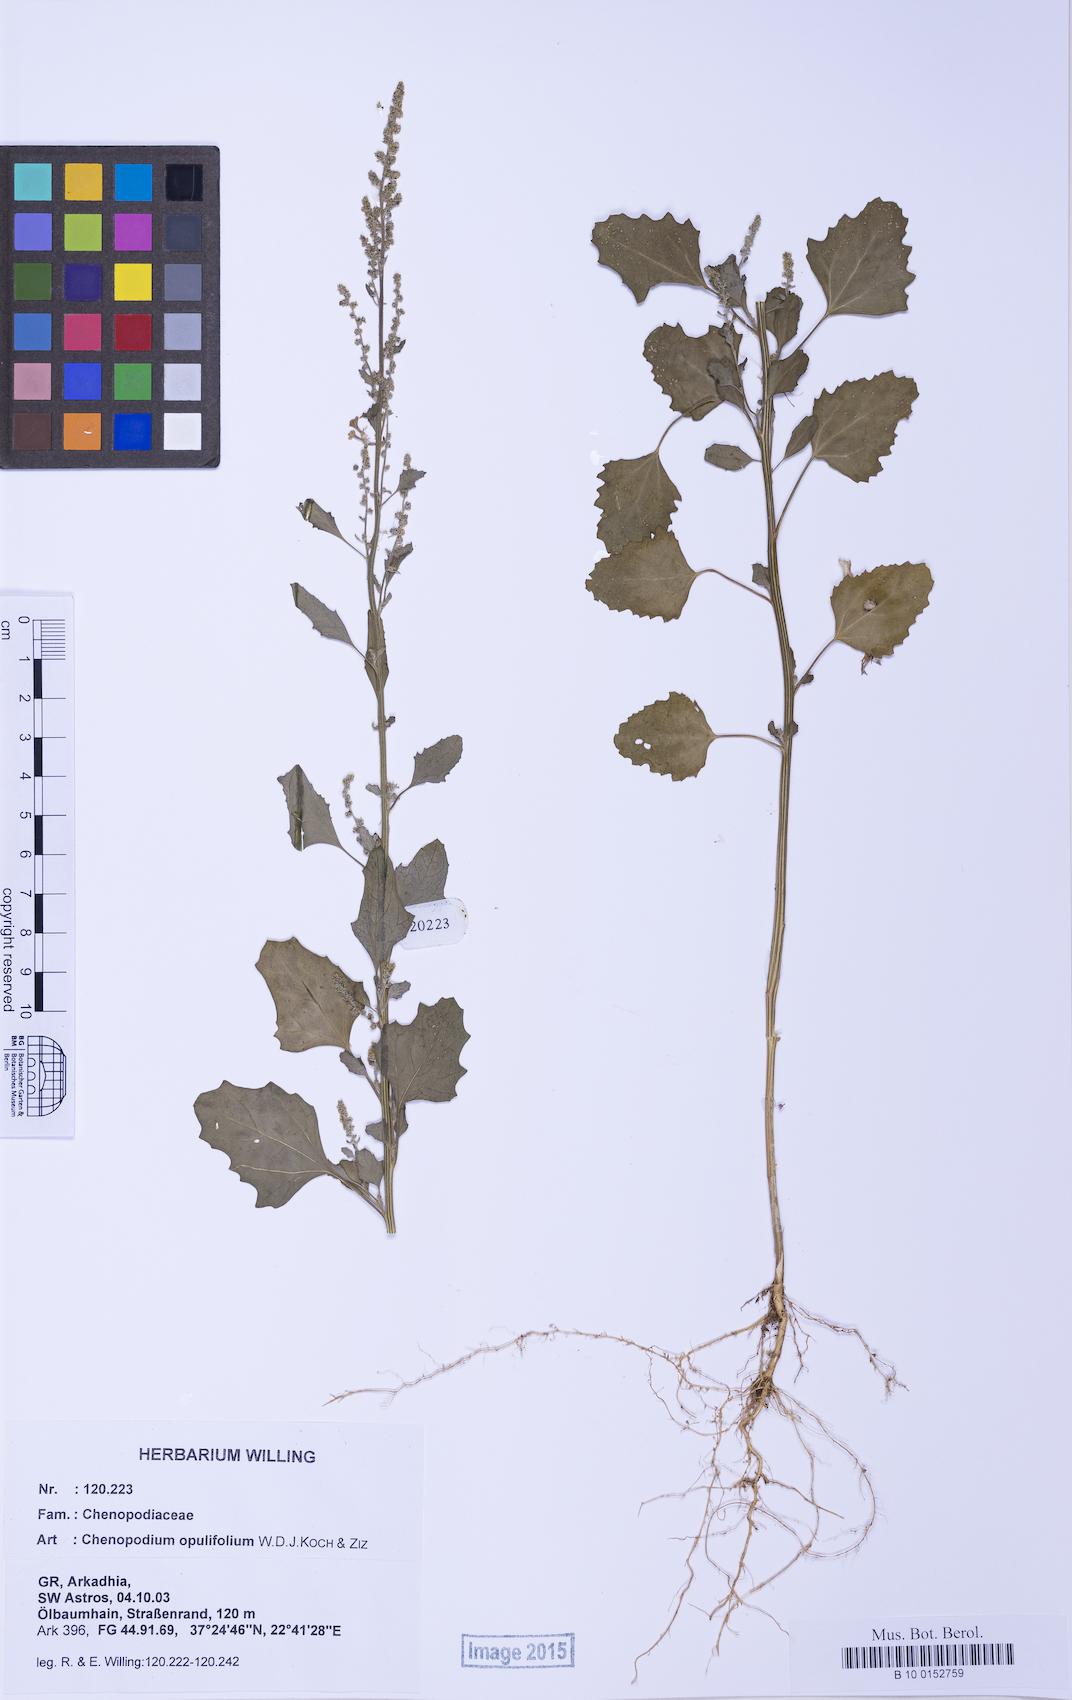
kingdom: Plantae
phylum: Tracheophyta
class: Magnoliopsida
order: Caryophyllales
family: Amaranthaceae
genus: Chenopodium
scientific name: Chenopodium album
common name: Fat-hen
